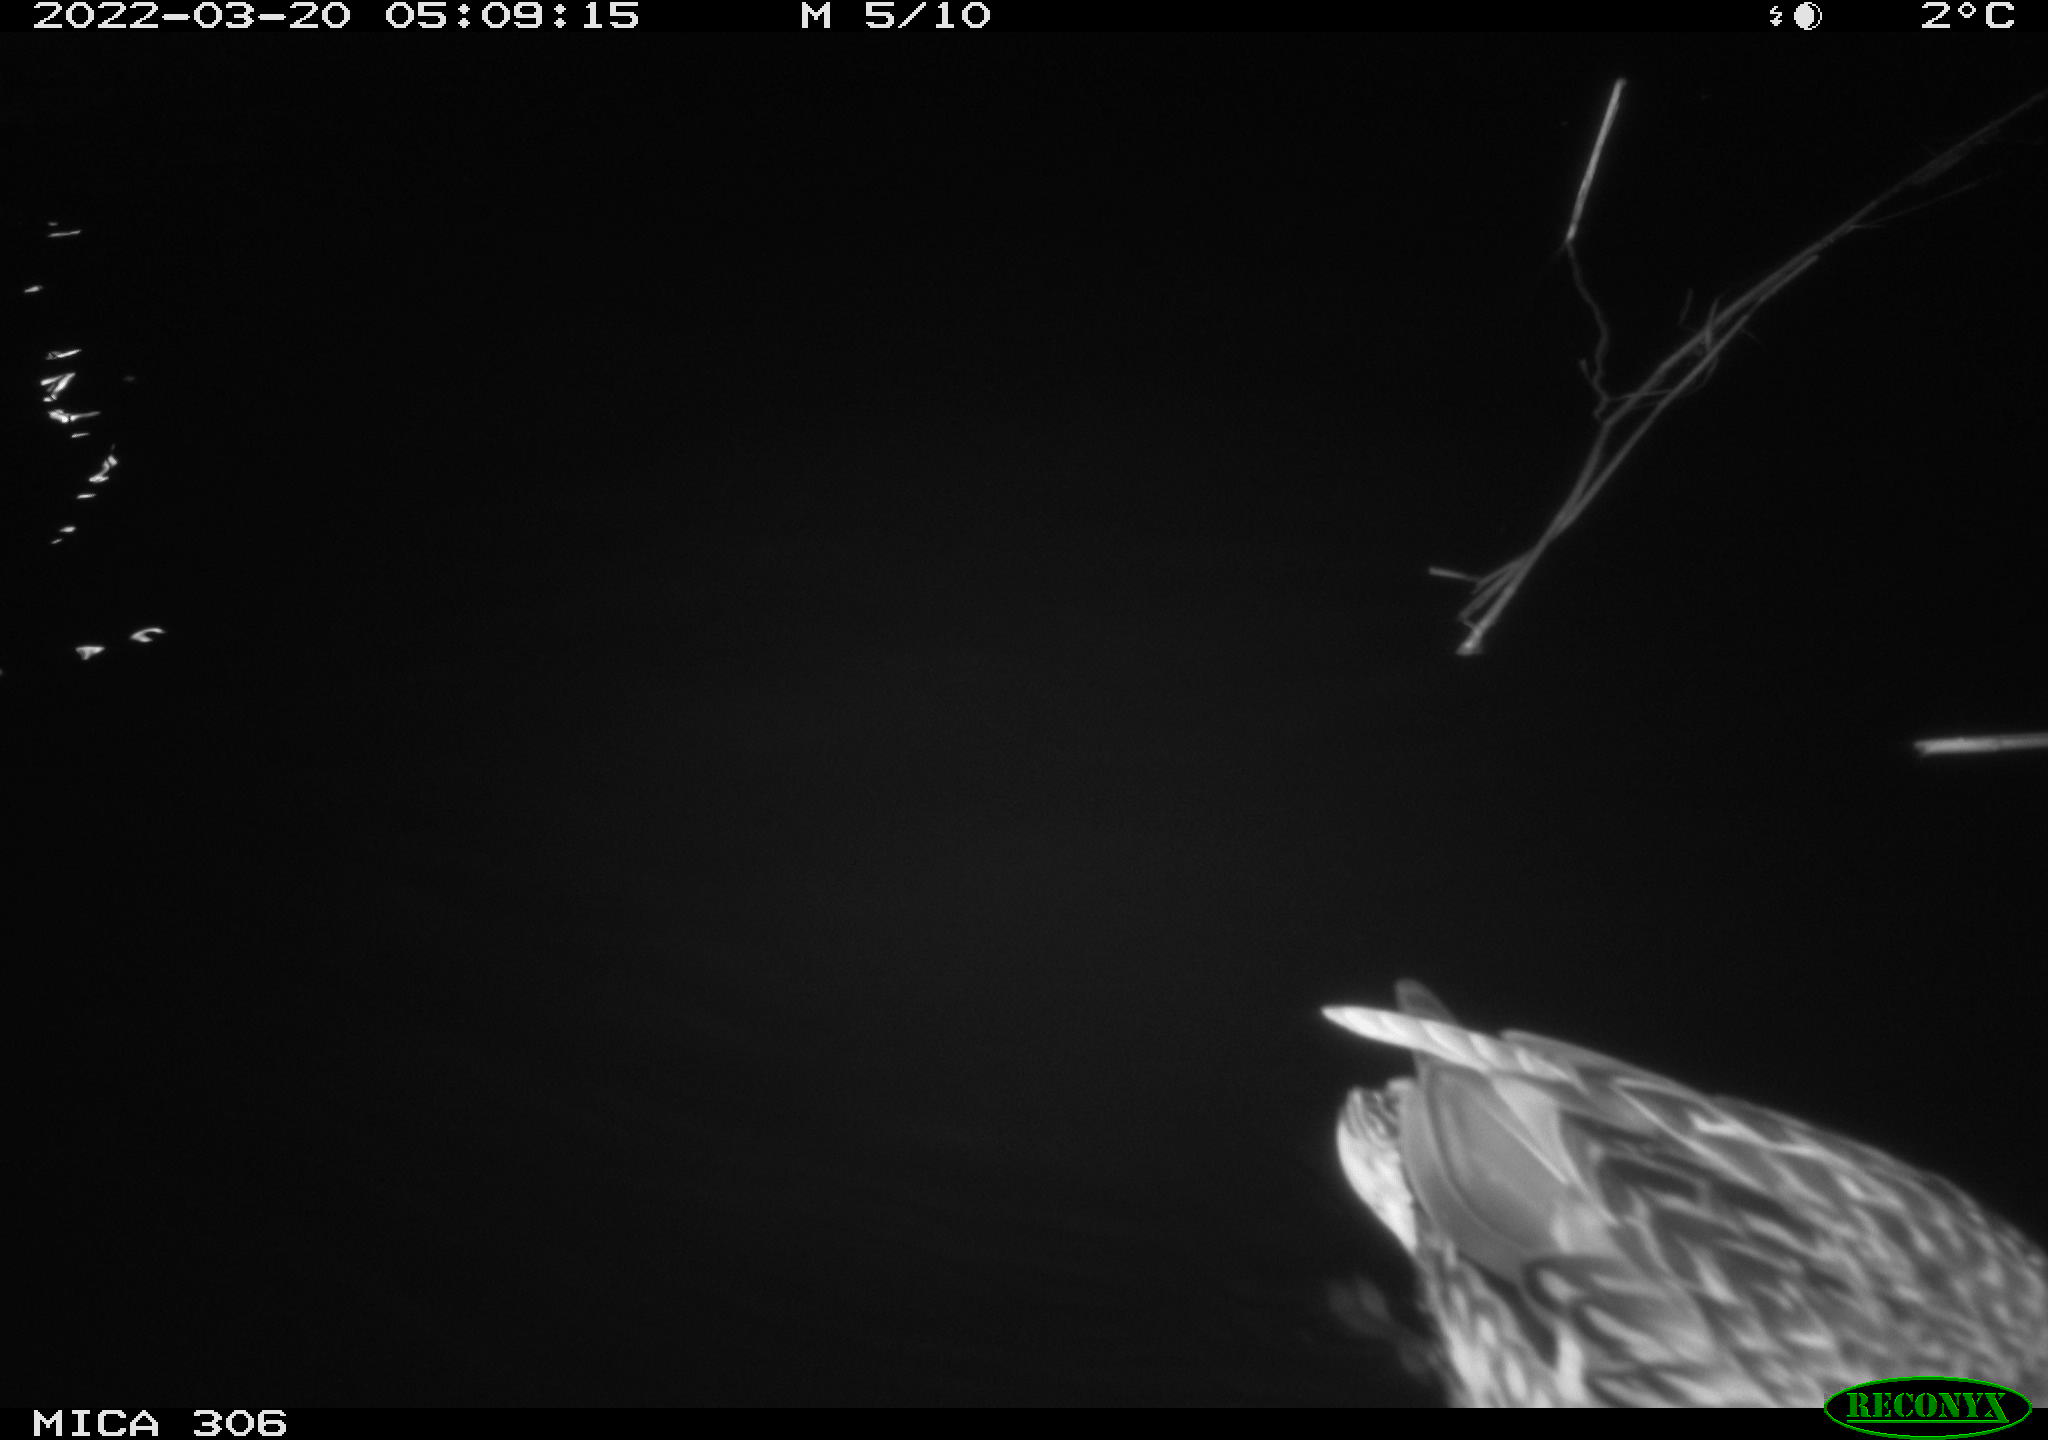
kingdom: Animalia
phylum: Chordata
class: Aves
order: Anseriformes
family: Anatidae
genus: Anas
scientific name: Anas platyrhynchos
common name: Mallard
